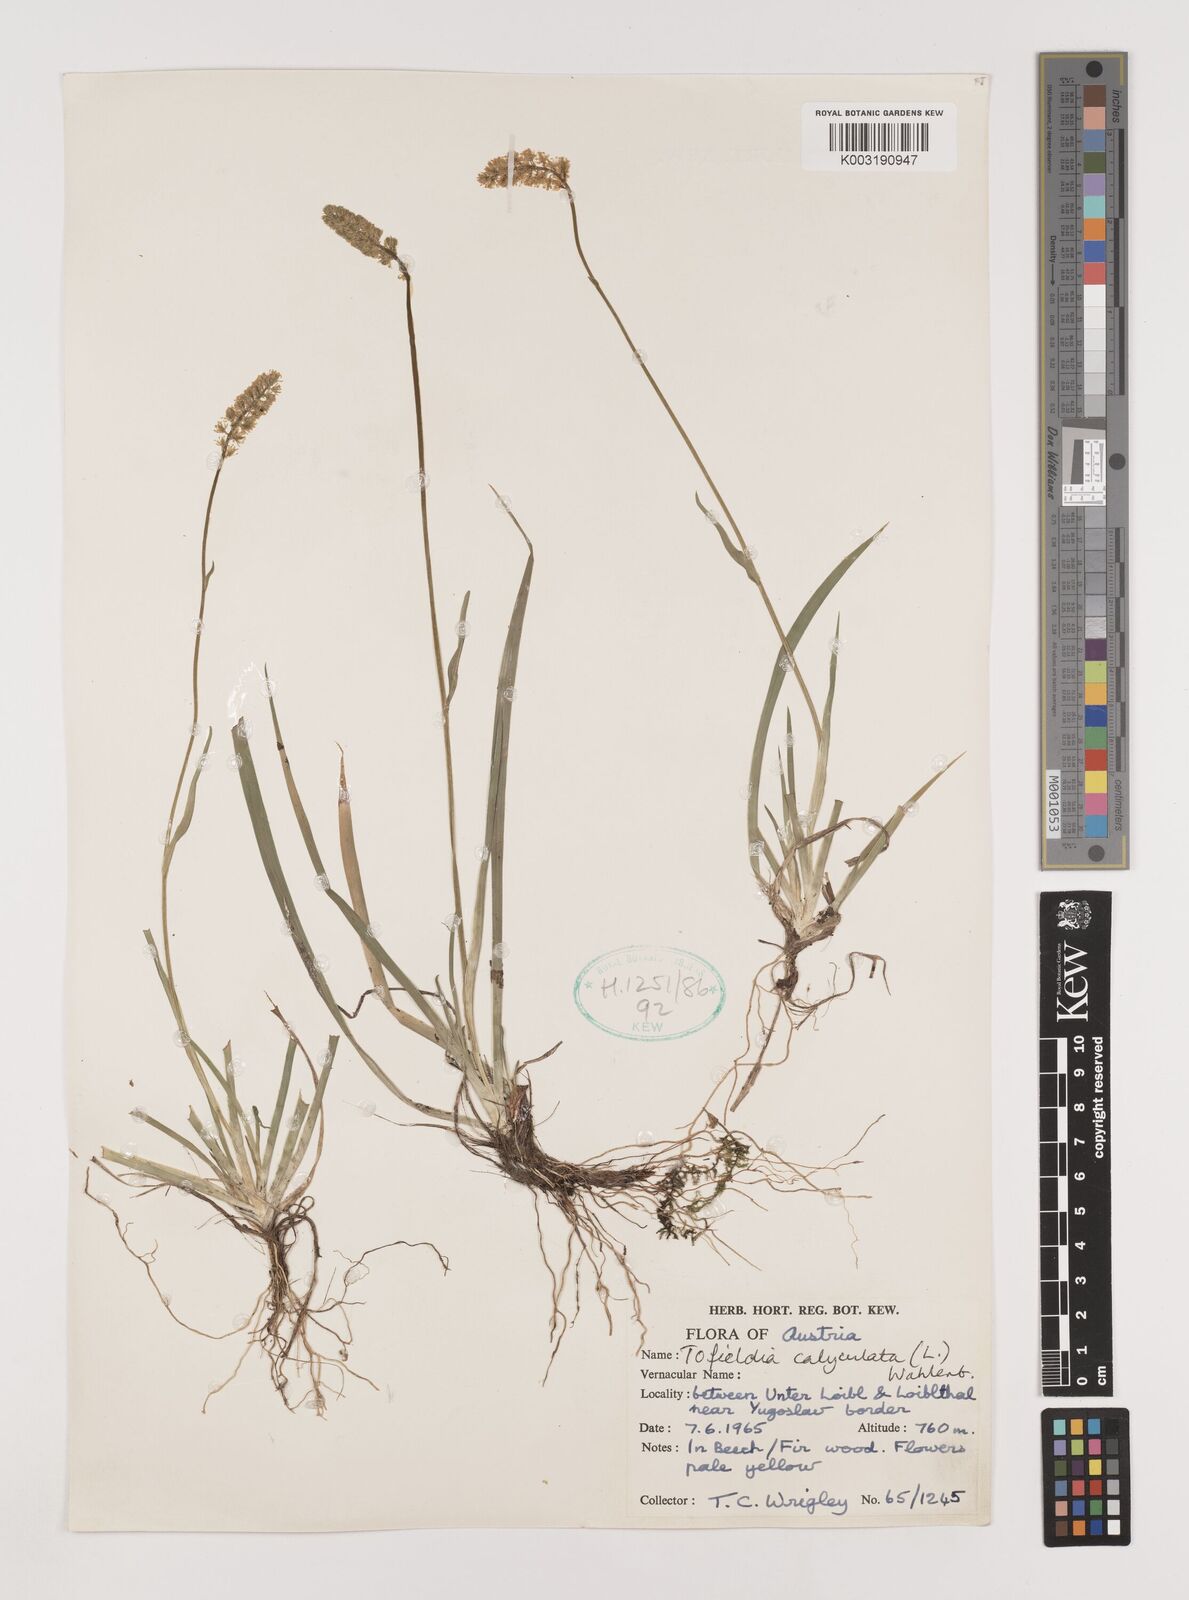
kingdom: Plantae
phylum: Tracheophyta
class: Liliopsida
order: Alismatales
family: Tofieldiaceae
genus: Tofieldia
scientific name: Tofieldia calyculata
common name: German-asphodel
